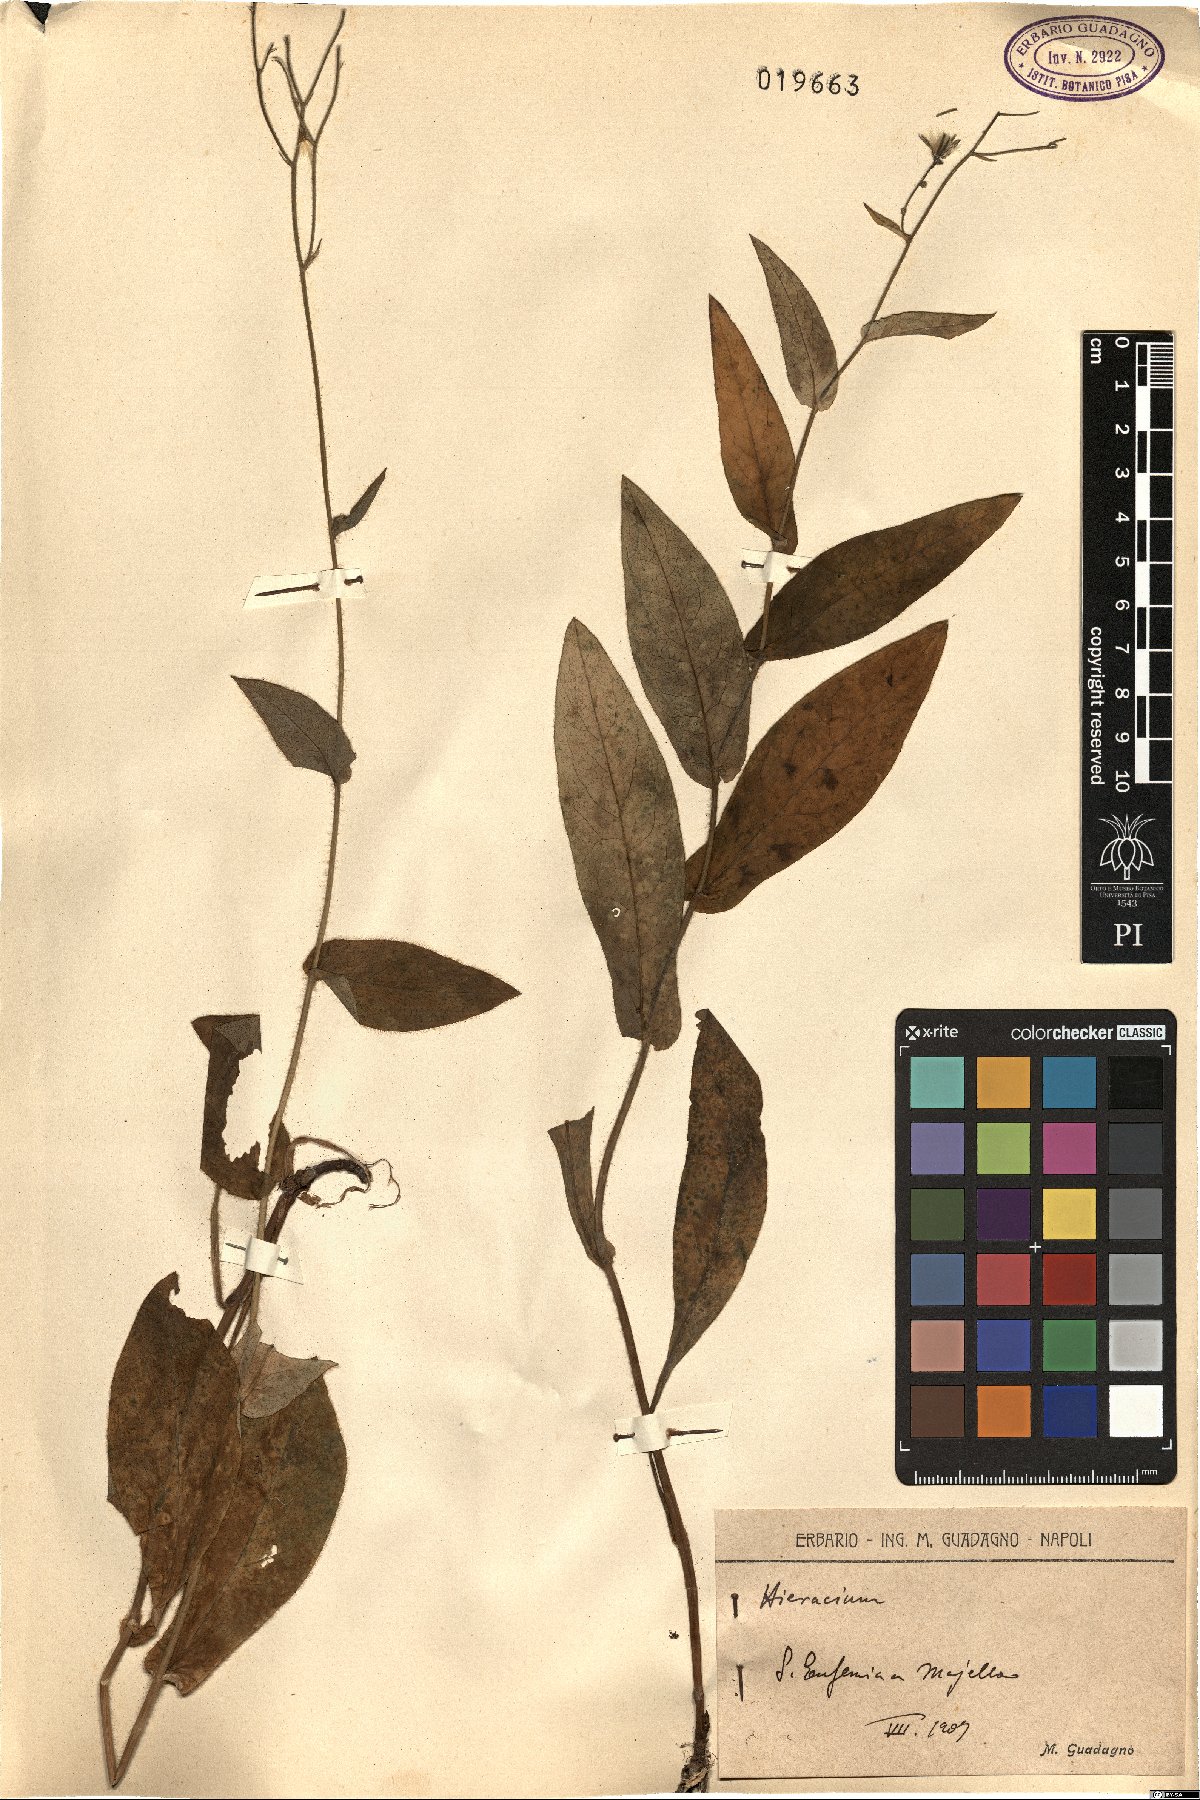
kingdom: Plantae
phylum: Tracheophyta
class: Magnoliopsida
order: Asterales
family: Asteraceae
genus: Hieracium
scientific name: Hieracium
